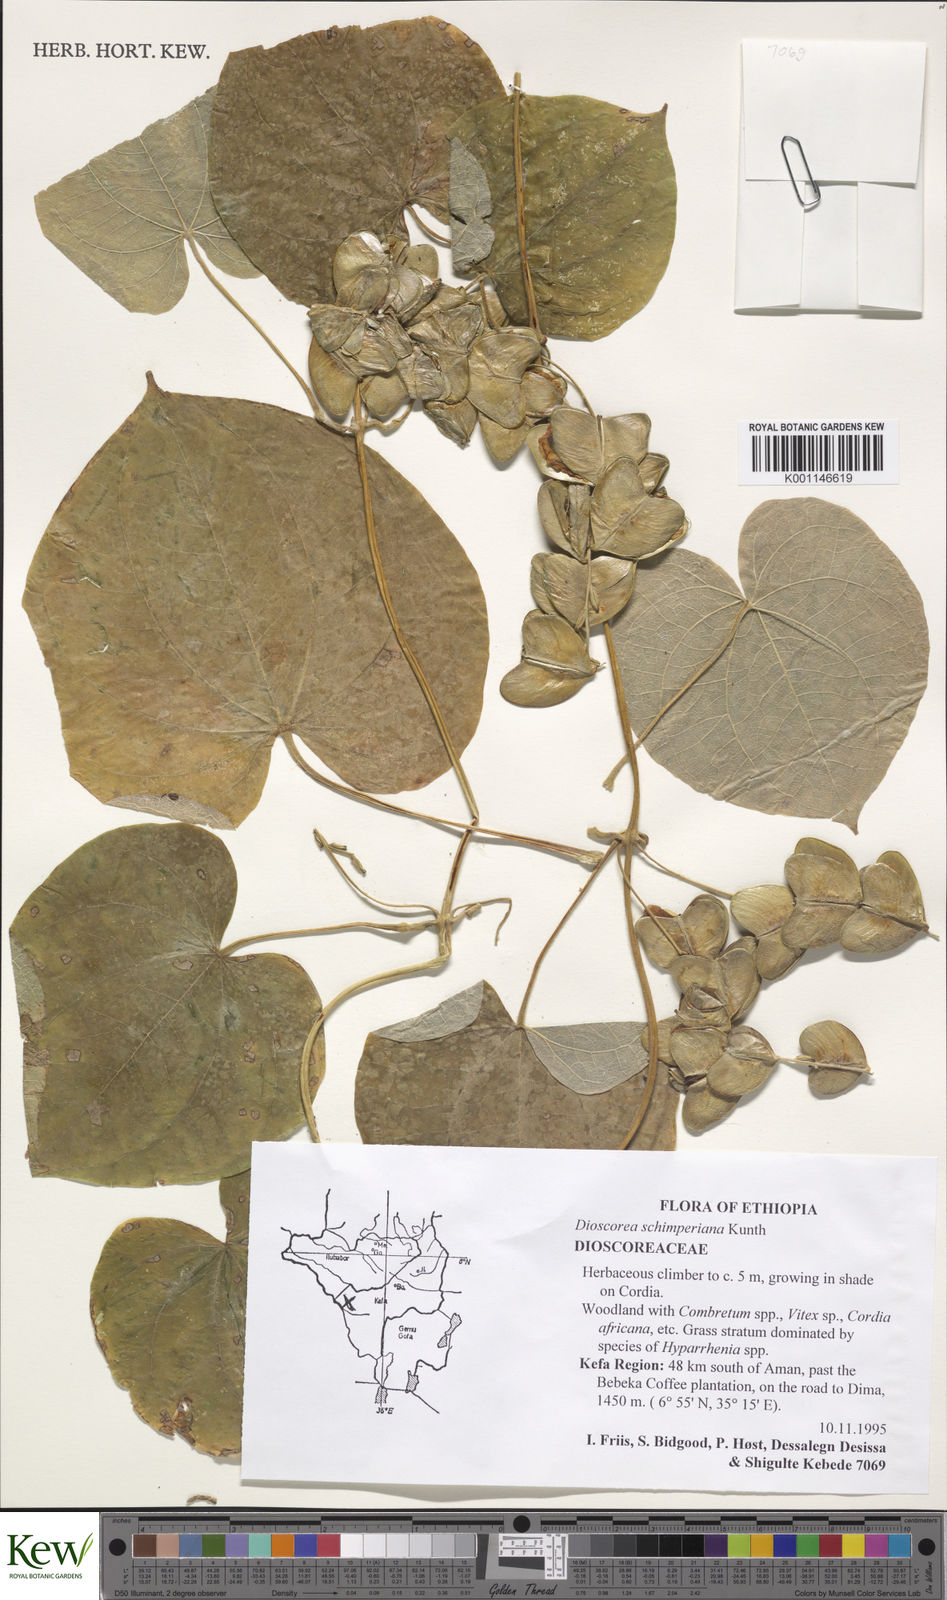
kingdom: Plantae
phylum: Tracheophyta
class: Liliopsida
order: Dioscoreales
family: Dioscoreaceae
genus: Dioscorea
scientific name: Dioscorea schimperiana
